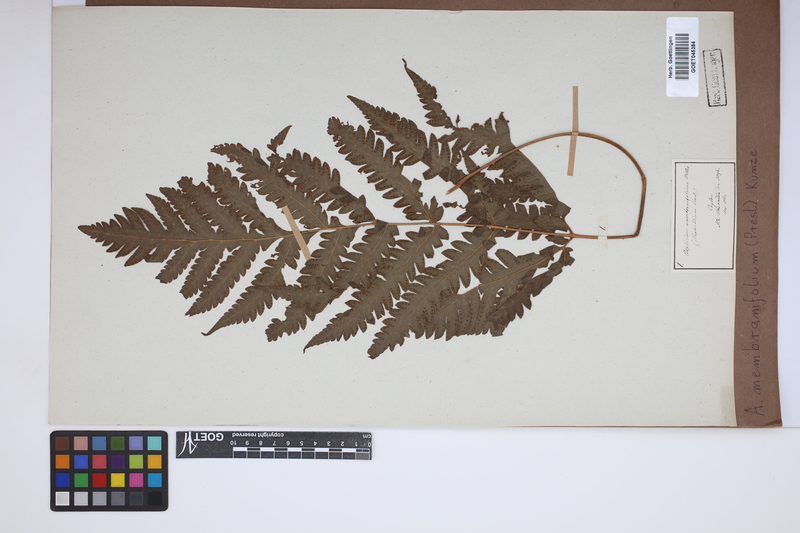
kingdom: Plantae
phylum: Tracheophyta
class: Polypodiopsida
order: Polypodiales
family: Tectariaceae
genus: Tectaria
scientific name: Tectaria dissecta
